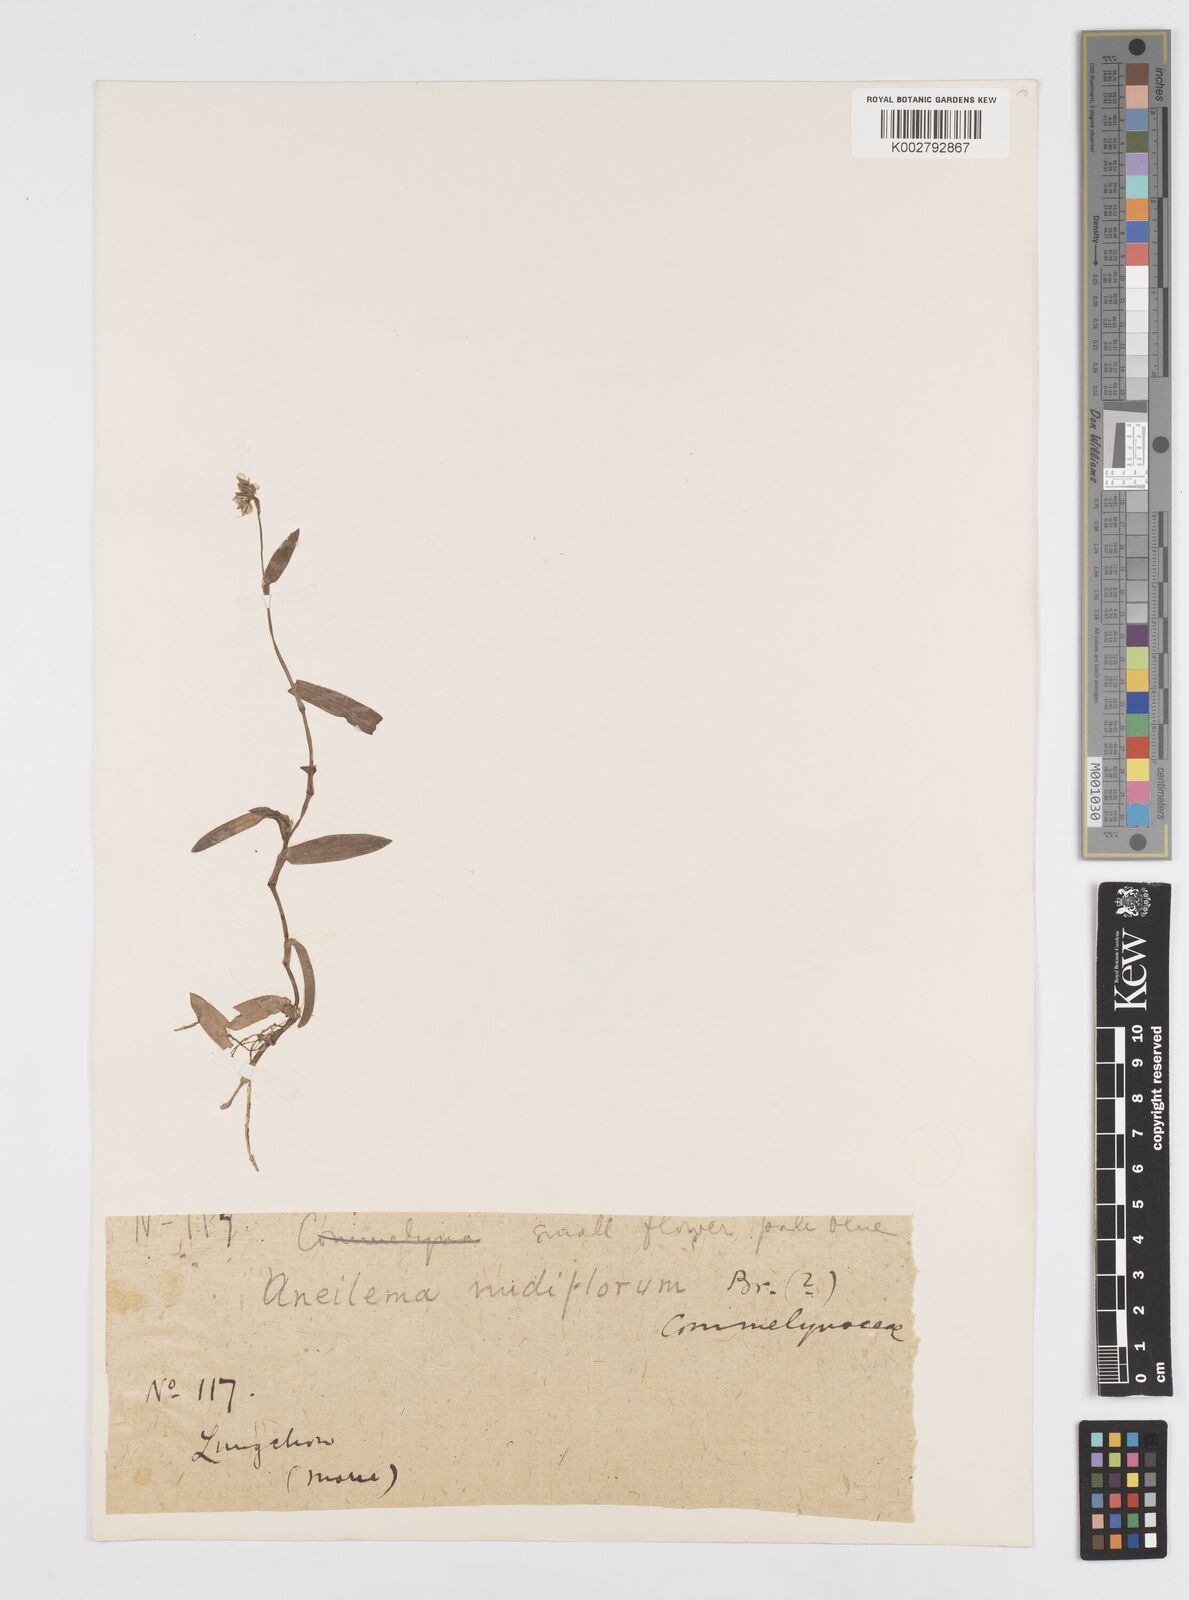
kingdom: Plantae
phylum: Tracheophyta
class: Liliopsida
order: Commelinales
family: Commelinaceae
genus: Murdannia
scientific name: Murdannia
